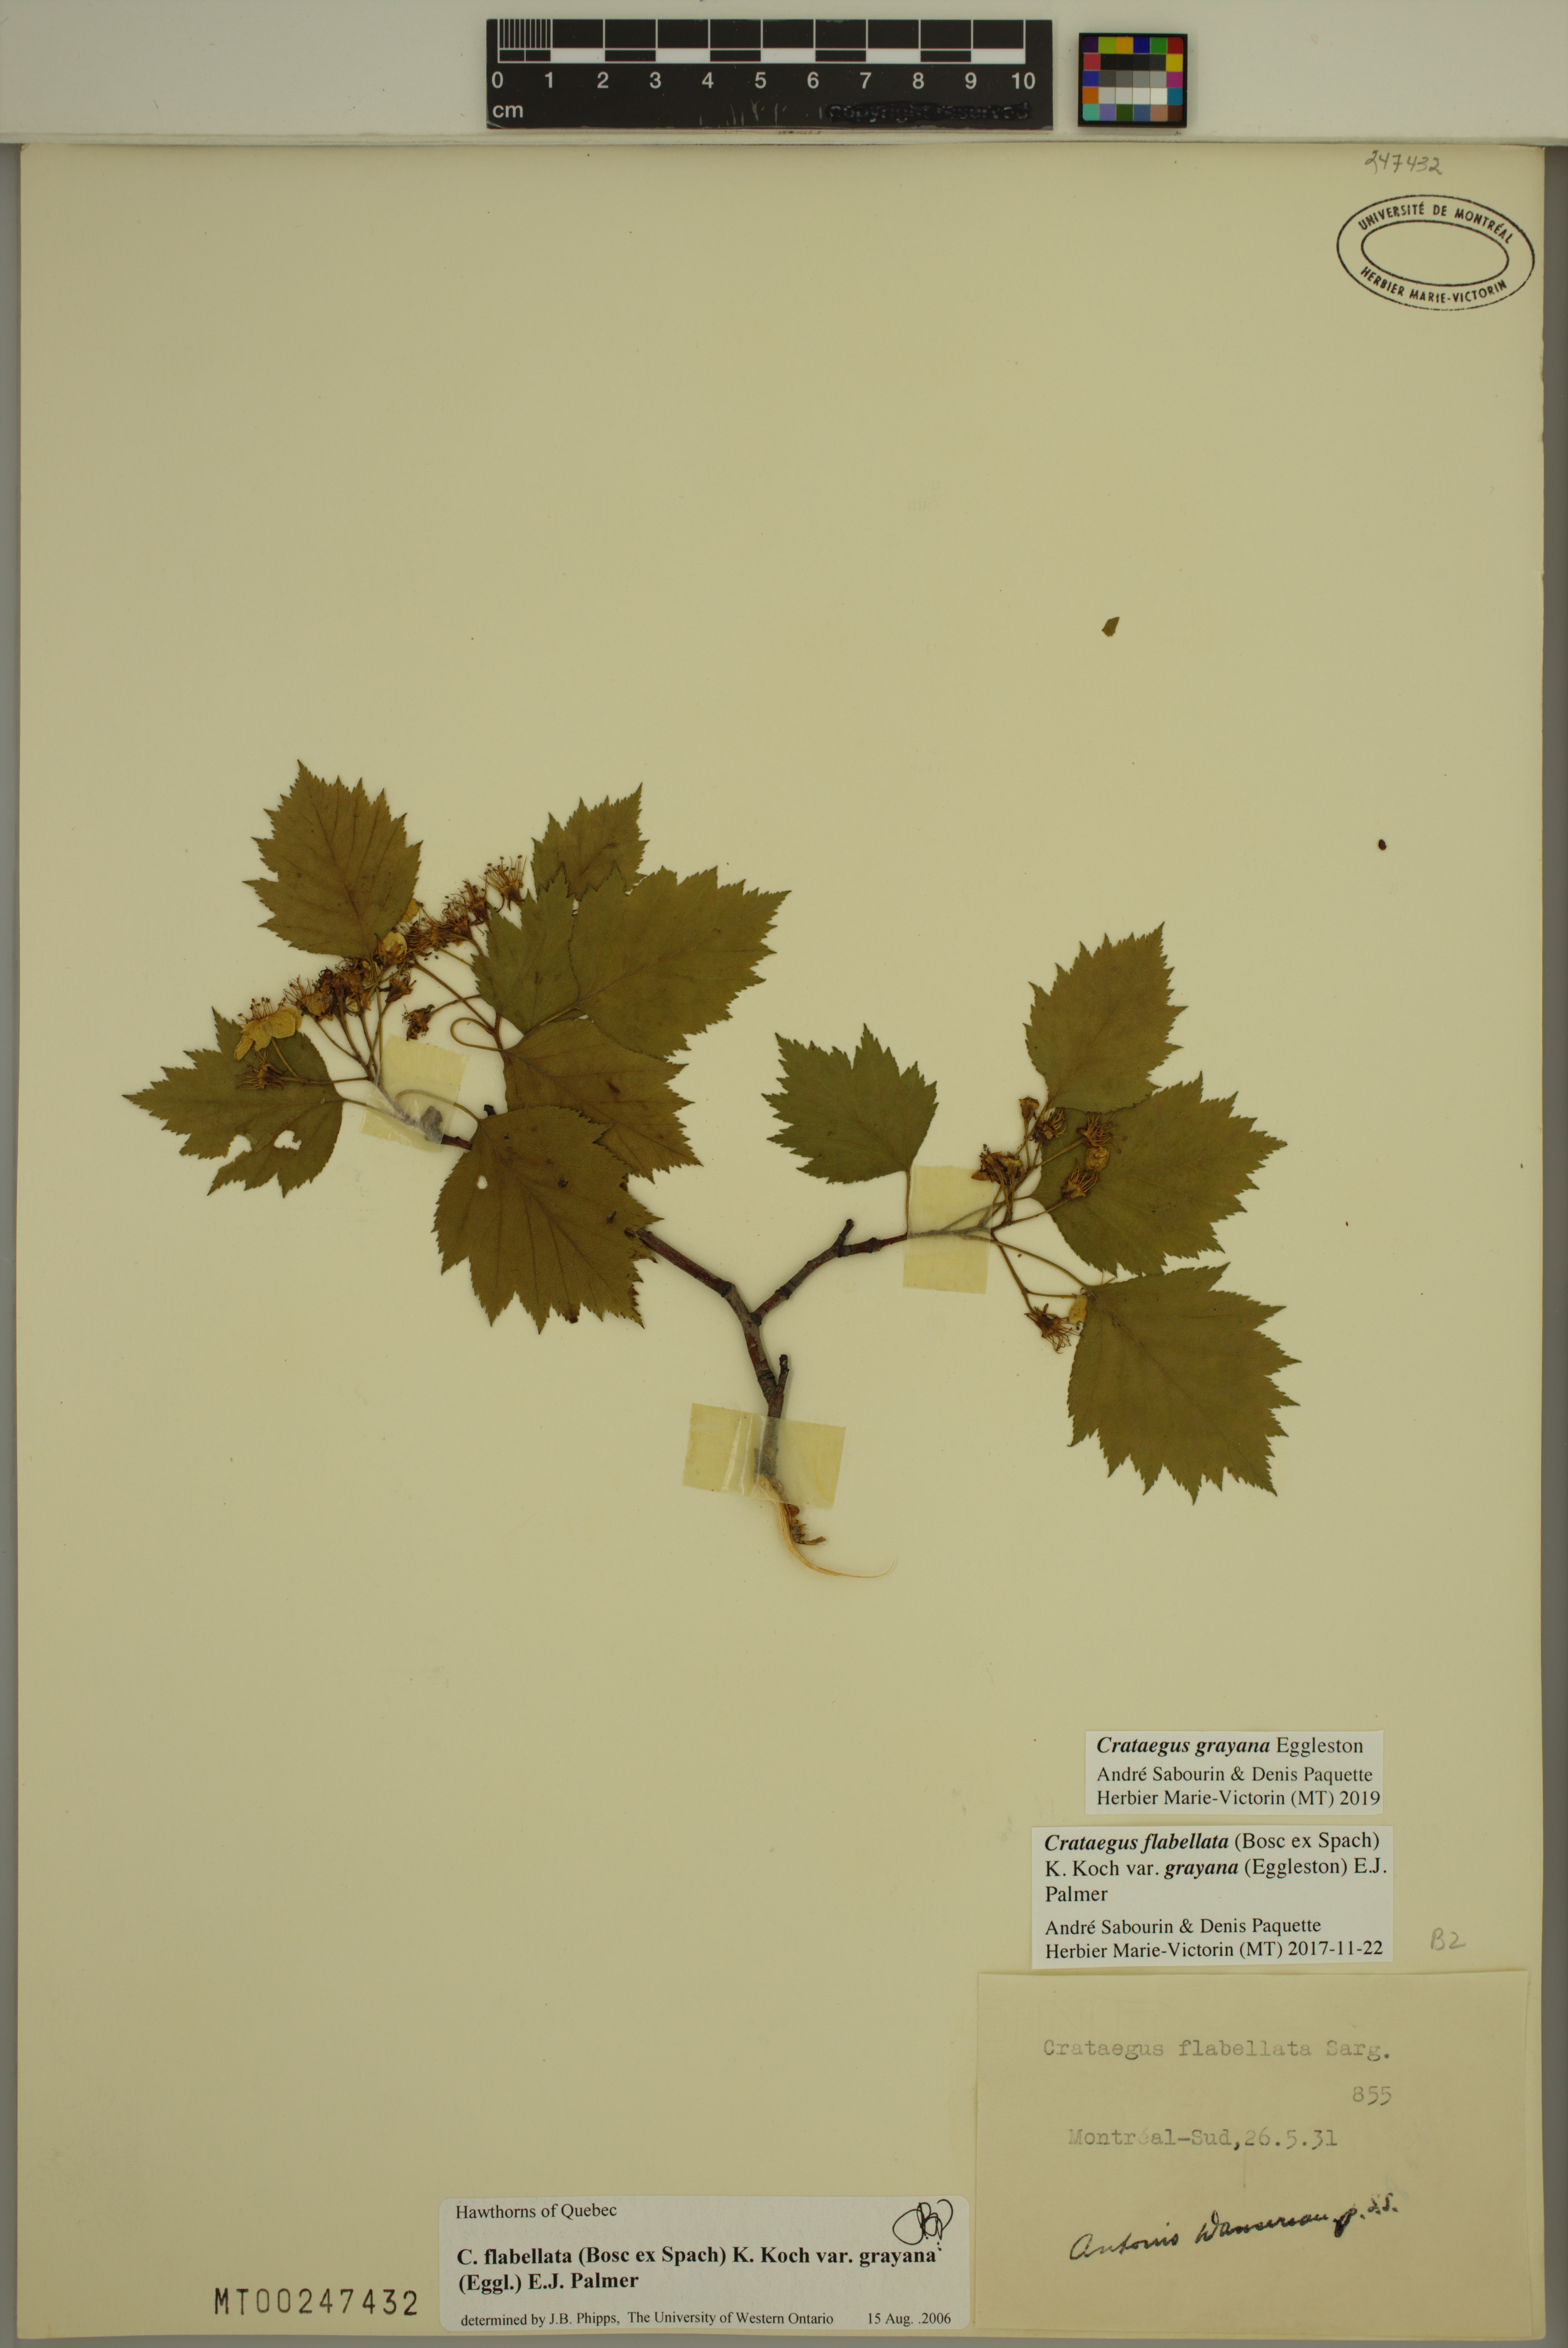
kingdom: Plantae
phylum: Tracheophyta
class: Magnoliopsida
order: Rosales
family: Rosaceae
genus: Crataegus
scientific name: Crataegus schuettei
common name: Schuette's hawthorn
